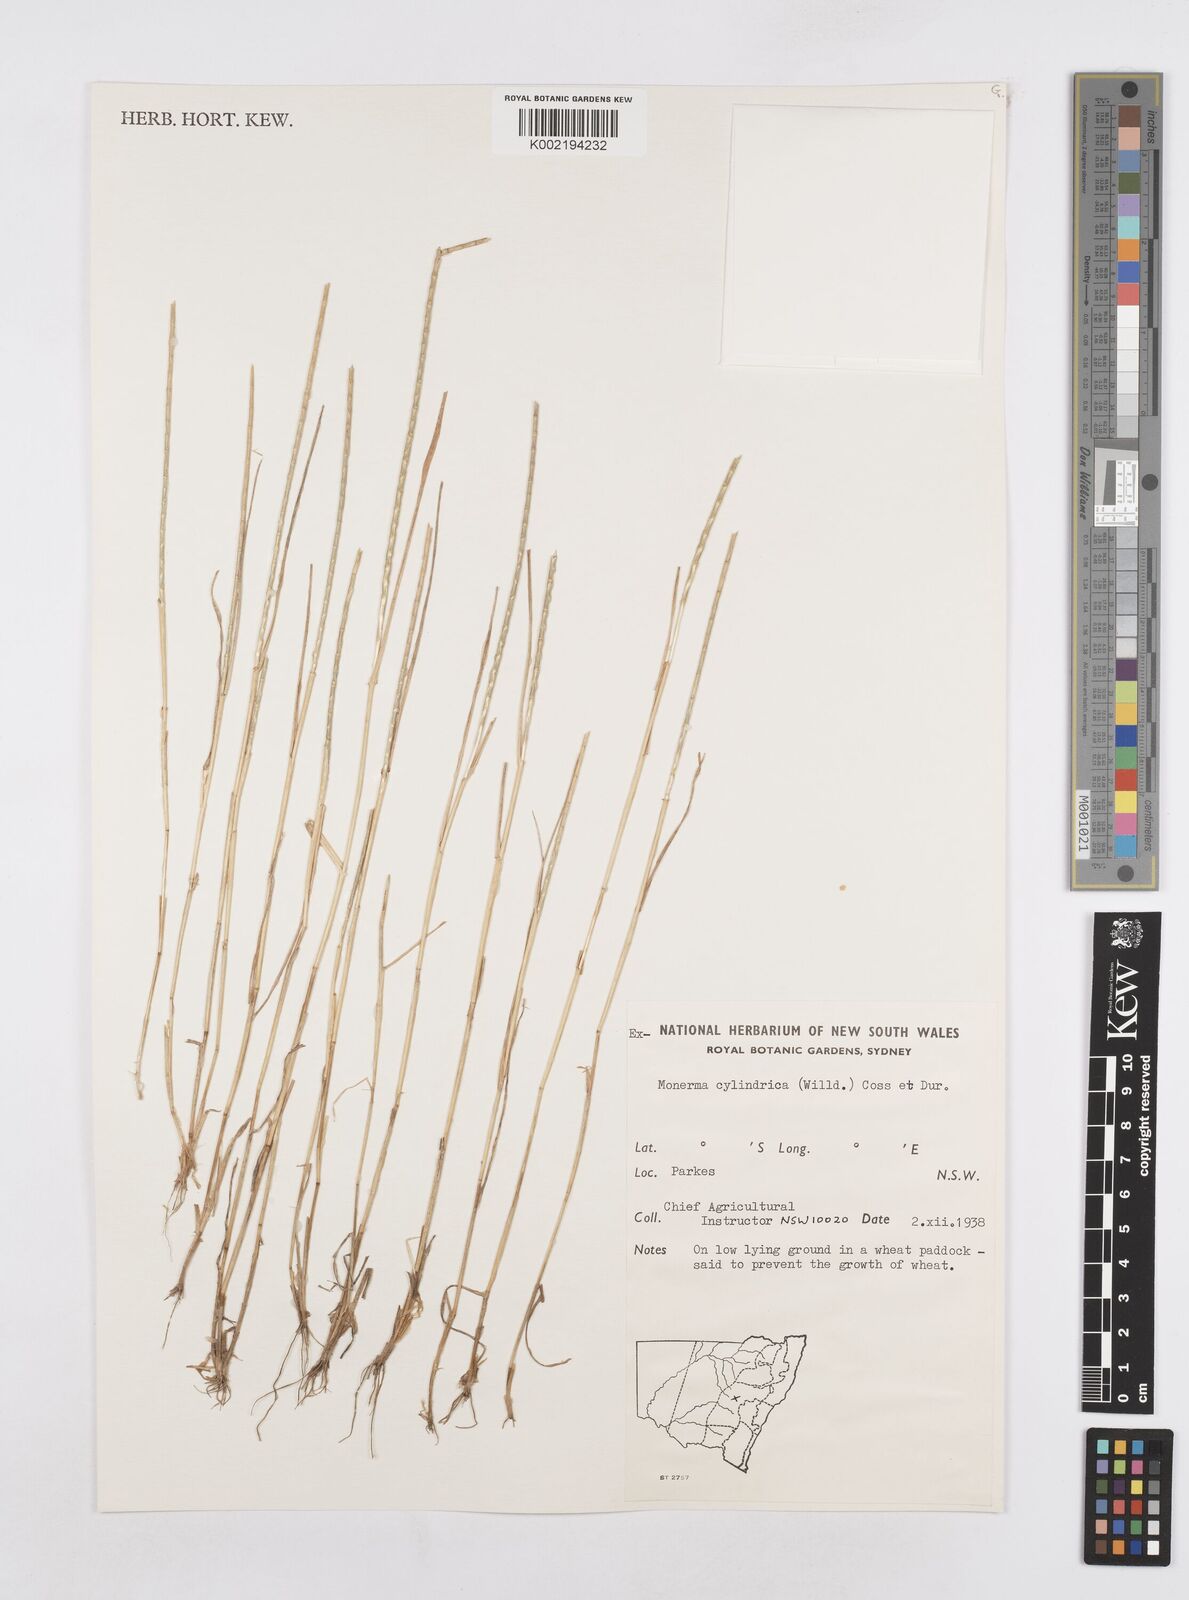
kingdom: Plantae
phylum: Tracheophyta
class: Liliopsida
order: Poales
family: Poaceae
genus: Parapholis
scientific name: Parapholis cylindrica
